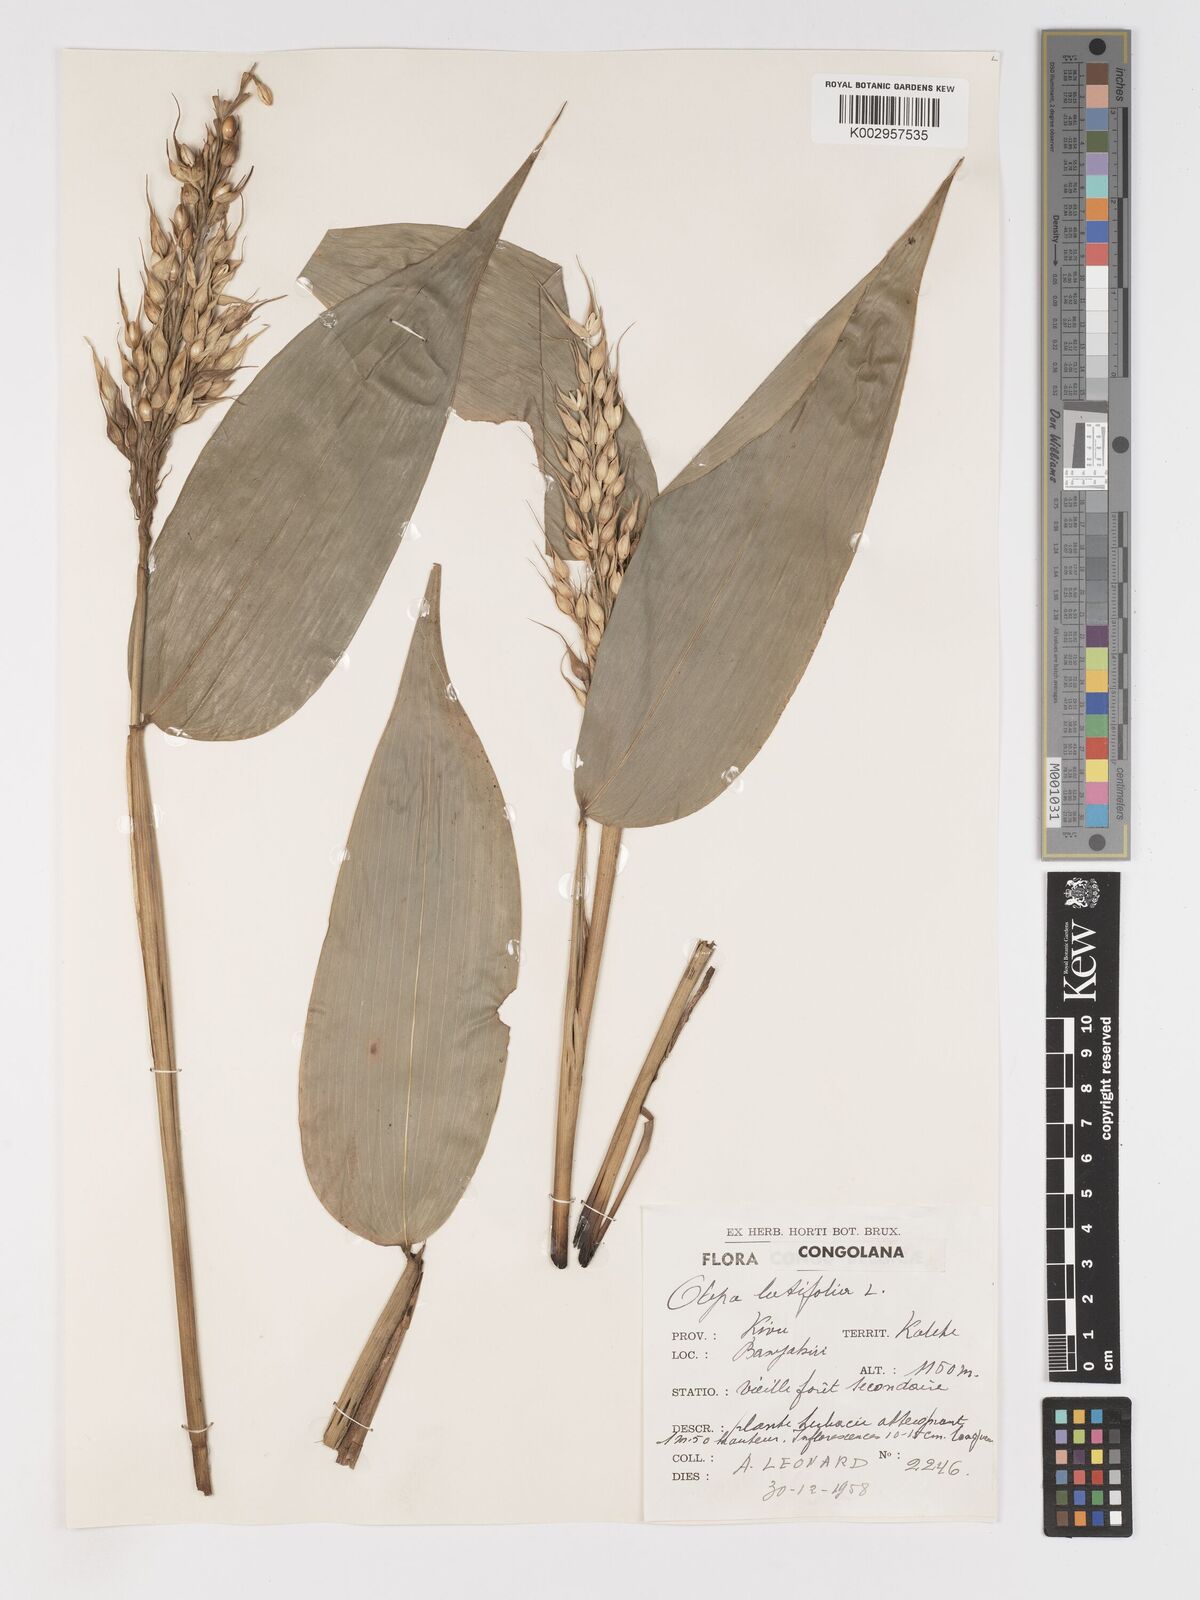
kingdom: Plantae
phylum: Tracheophyta
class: Liliopsida
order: Poales
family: Poaceae
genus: Olyra
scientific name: Olyra latifolia
